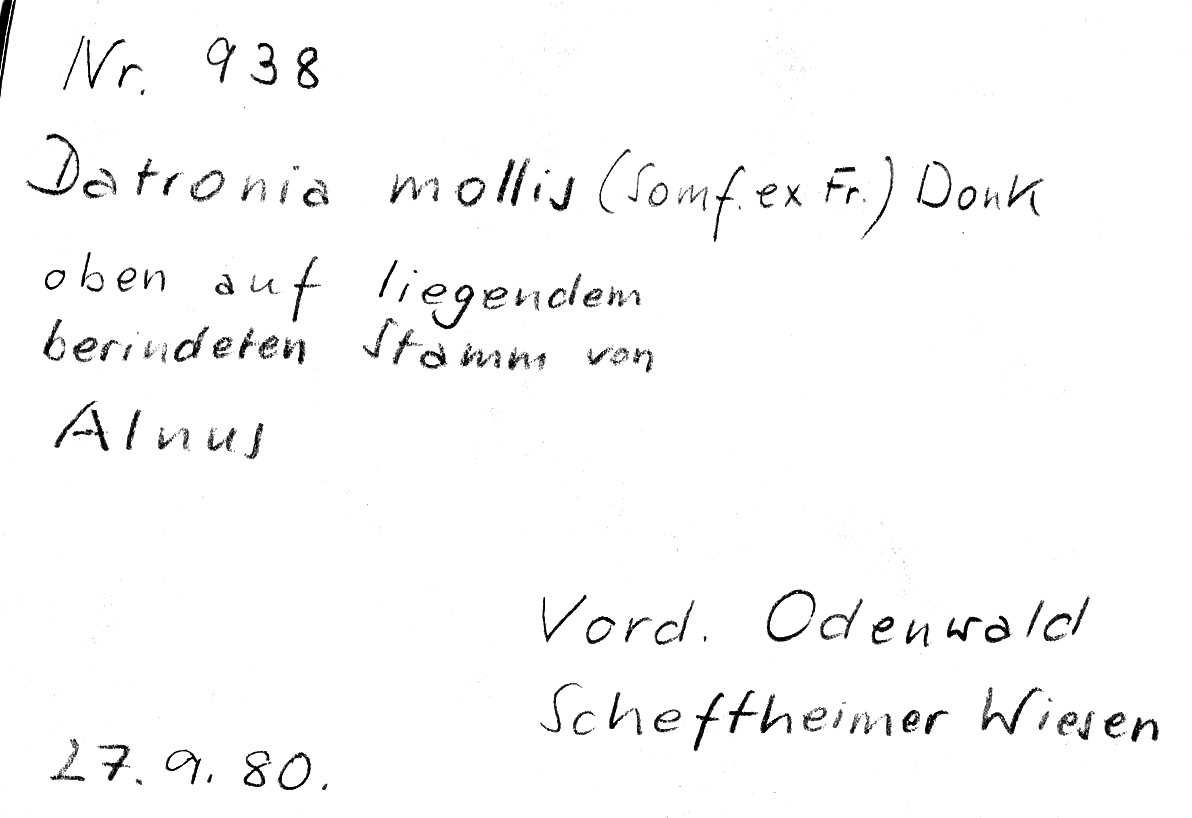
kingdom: Fungi
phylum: Basidiomycota
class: Agaricomycetes
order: Polyporales
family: Polyporaceae
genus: Podofomes
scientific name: Podofomes mollis
